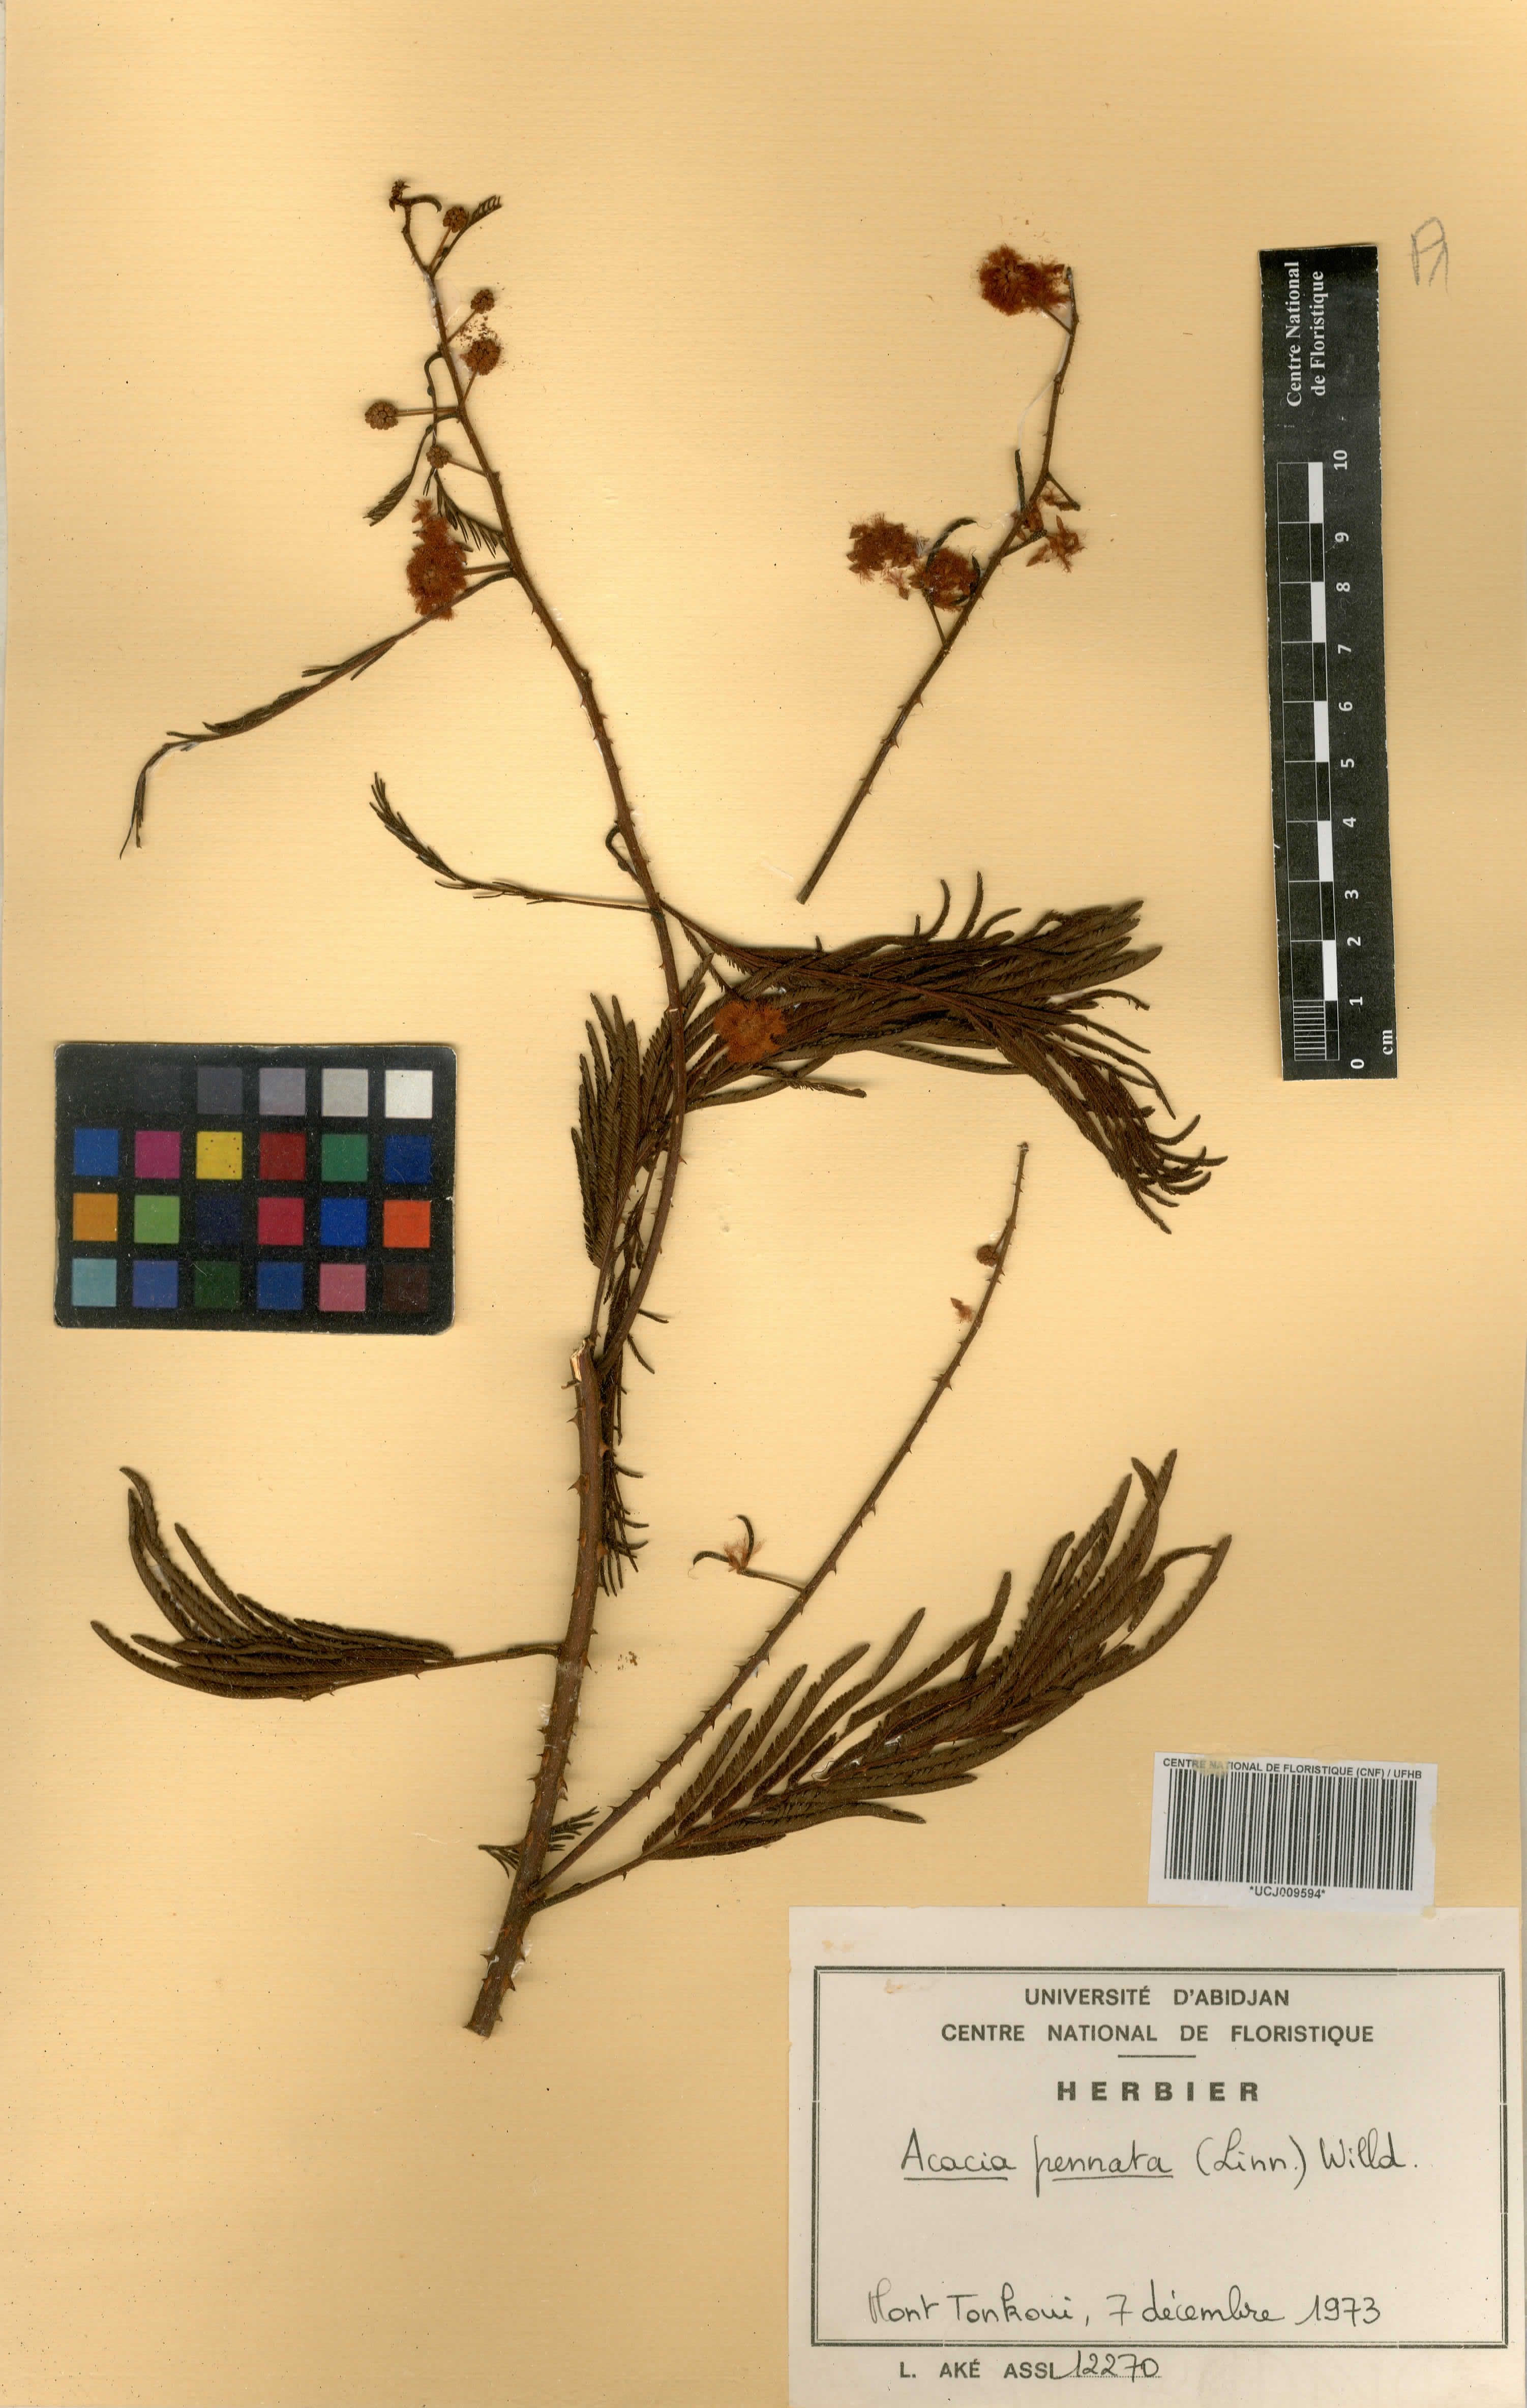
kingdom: Plantae
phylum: Tracheophyta
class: Magnoliopsida
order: Fabales
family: Fabaceae
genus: Senegalia
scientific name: Senegalia pennata
